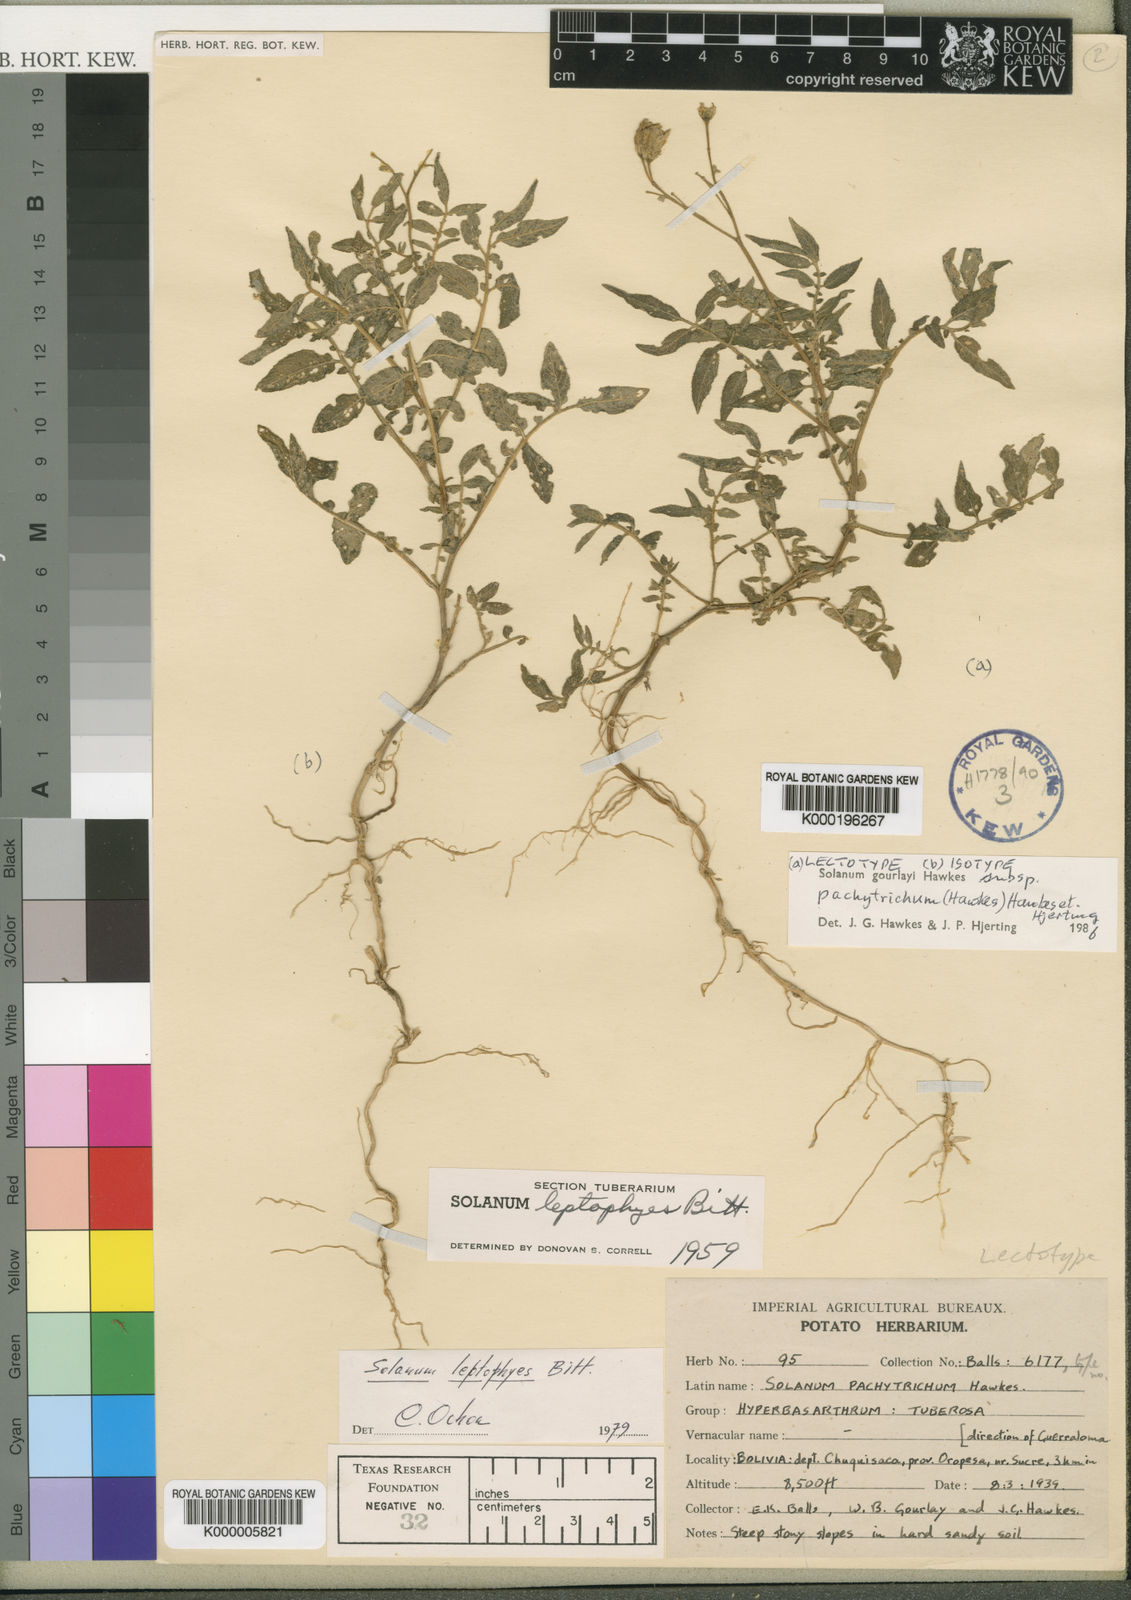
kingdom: Plantae
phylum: Tracheophyta
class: Magnoliopsida
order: Solanales
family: Solanaceae
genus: Solanum
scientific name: Solanum brevicaule
